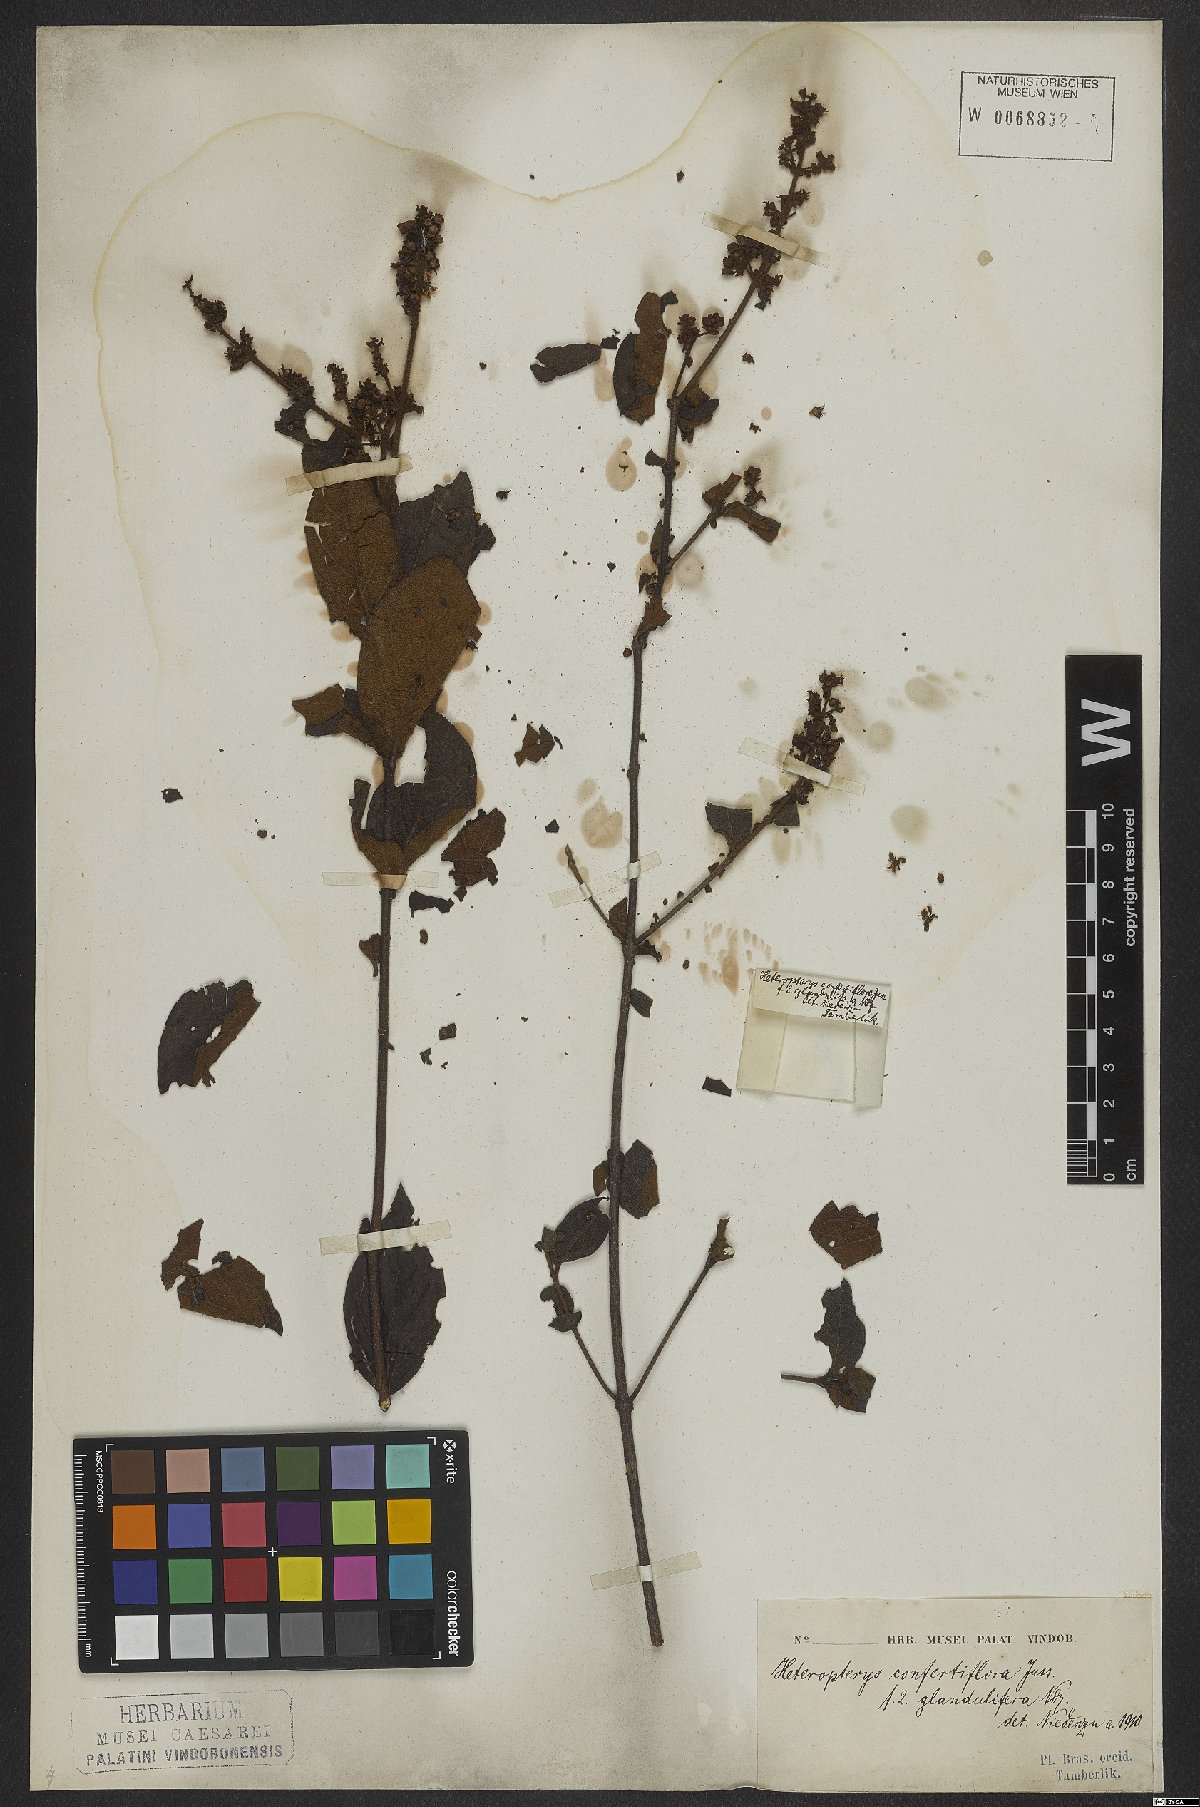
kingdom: Plantae
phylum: Tracheophyta
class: Magnoliopsida
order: Malpighiales
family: Malpighiaceae
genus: Heteropterys
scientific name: Heteropterys campestris
